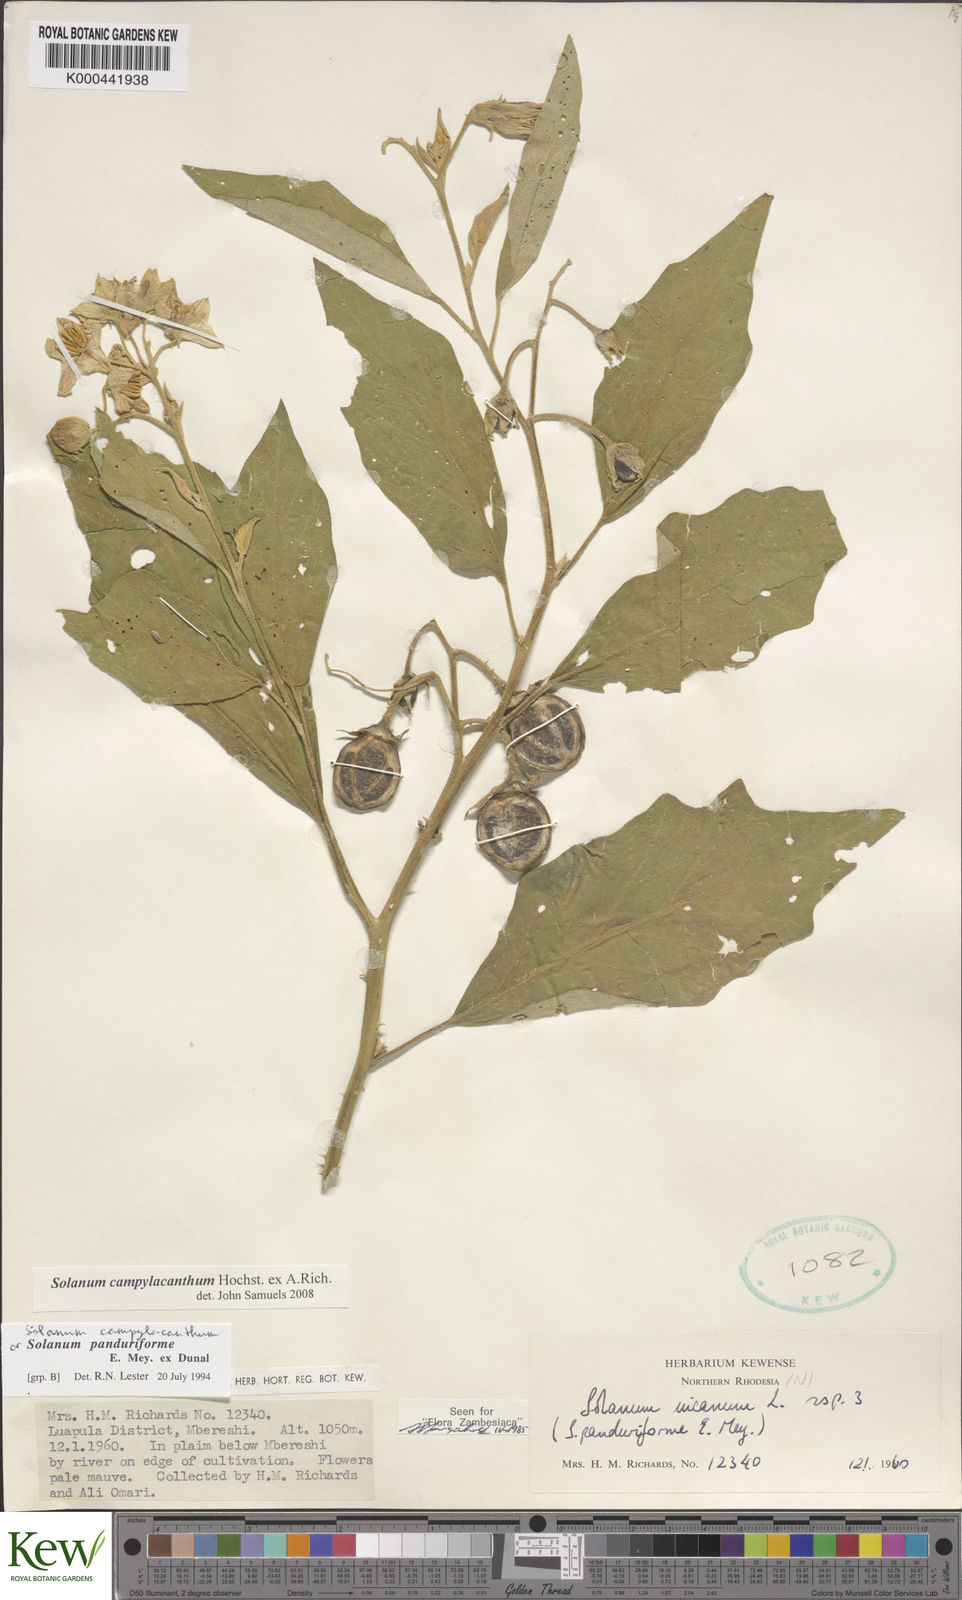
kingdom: Plantae
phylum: Tracheophyta
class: Magnoliopsida
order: Solanales
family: Solanaceae
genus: Solanum
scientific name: Solanum campylacanthum
